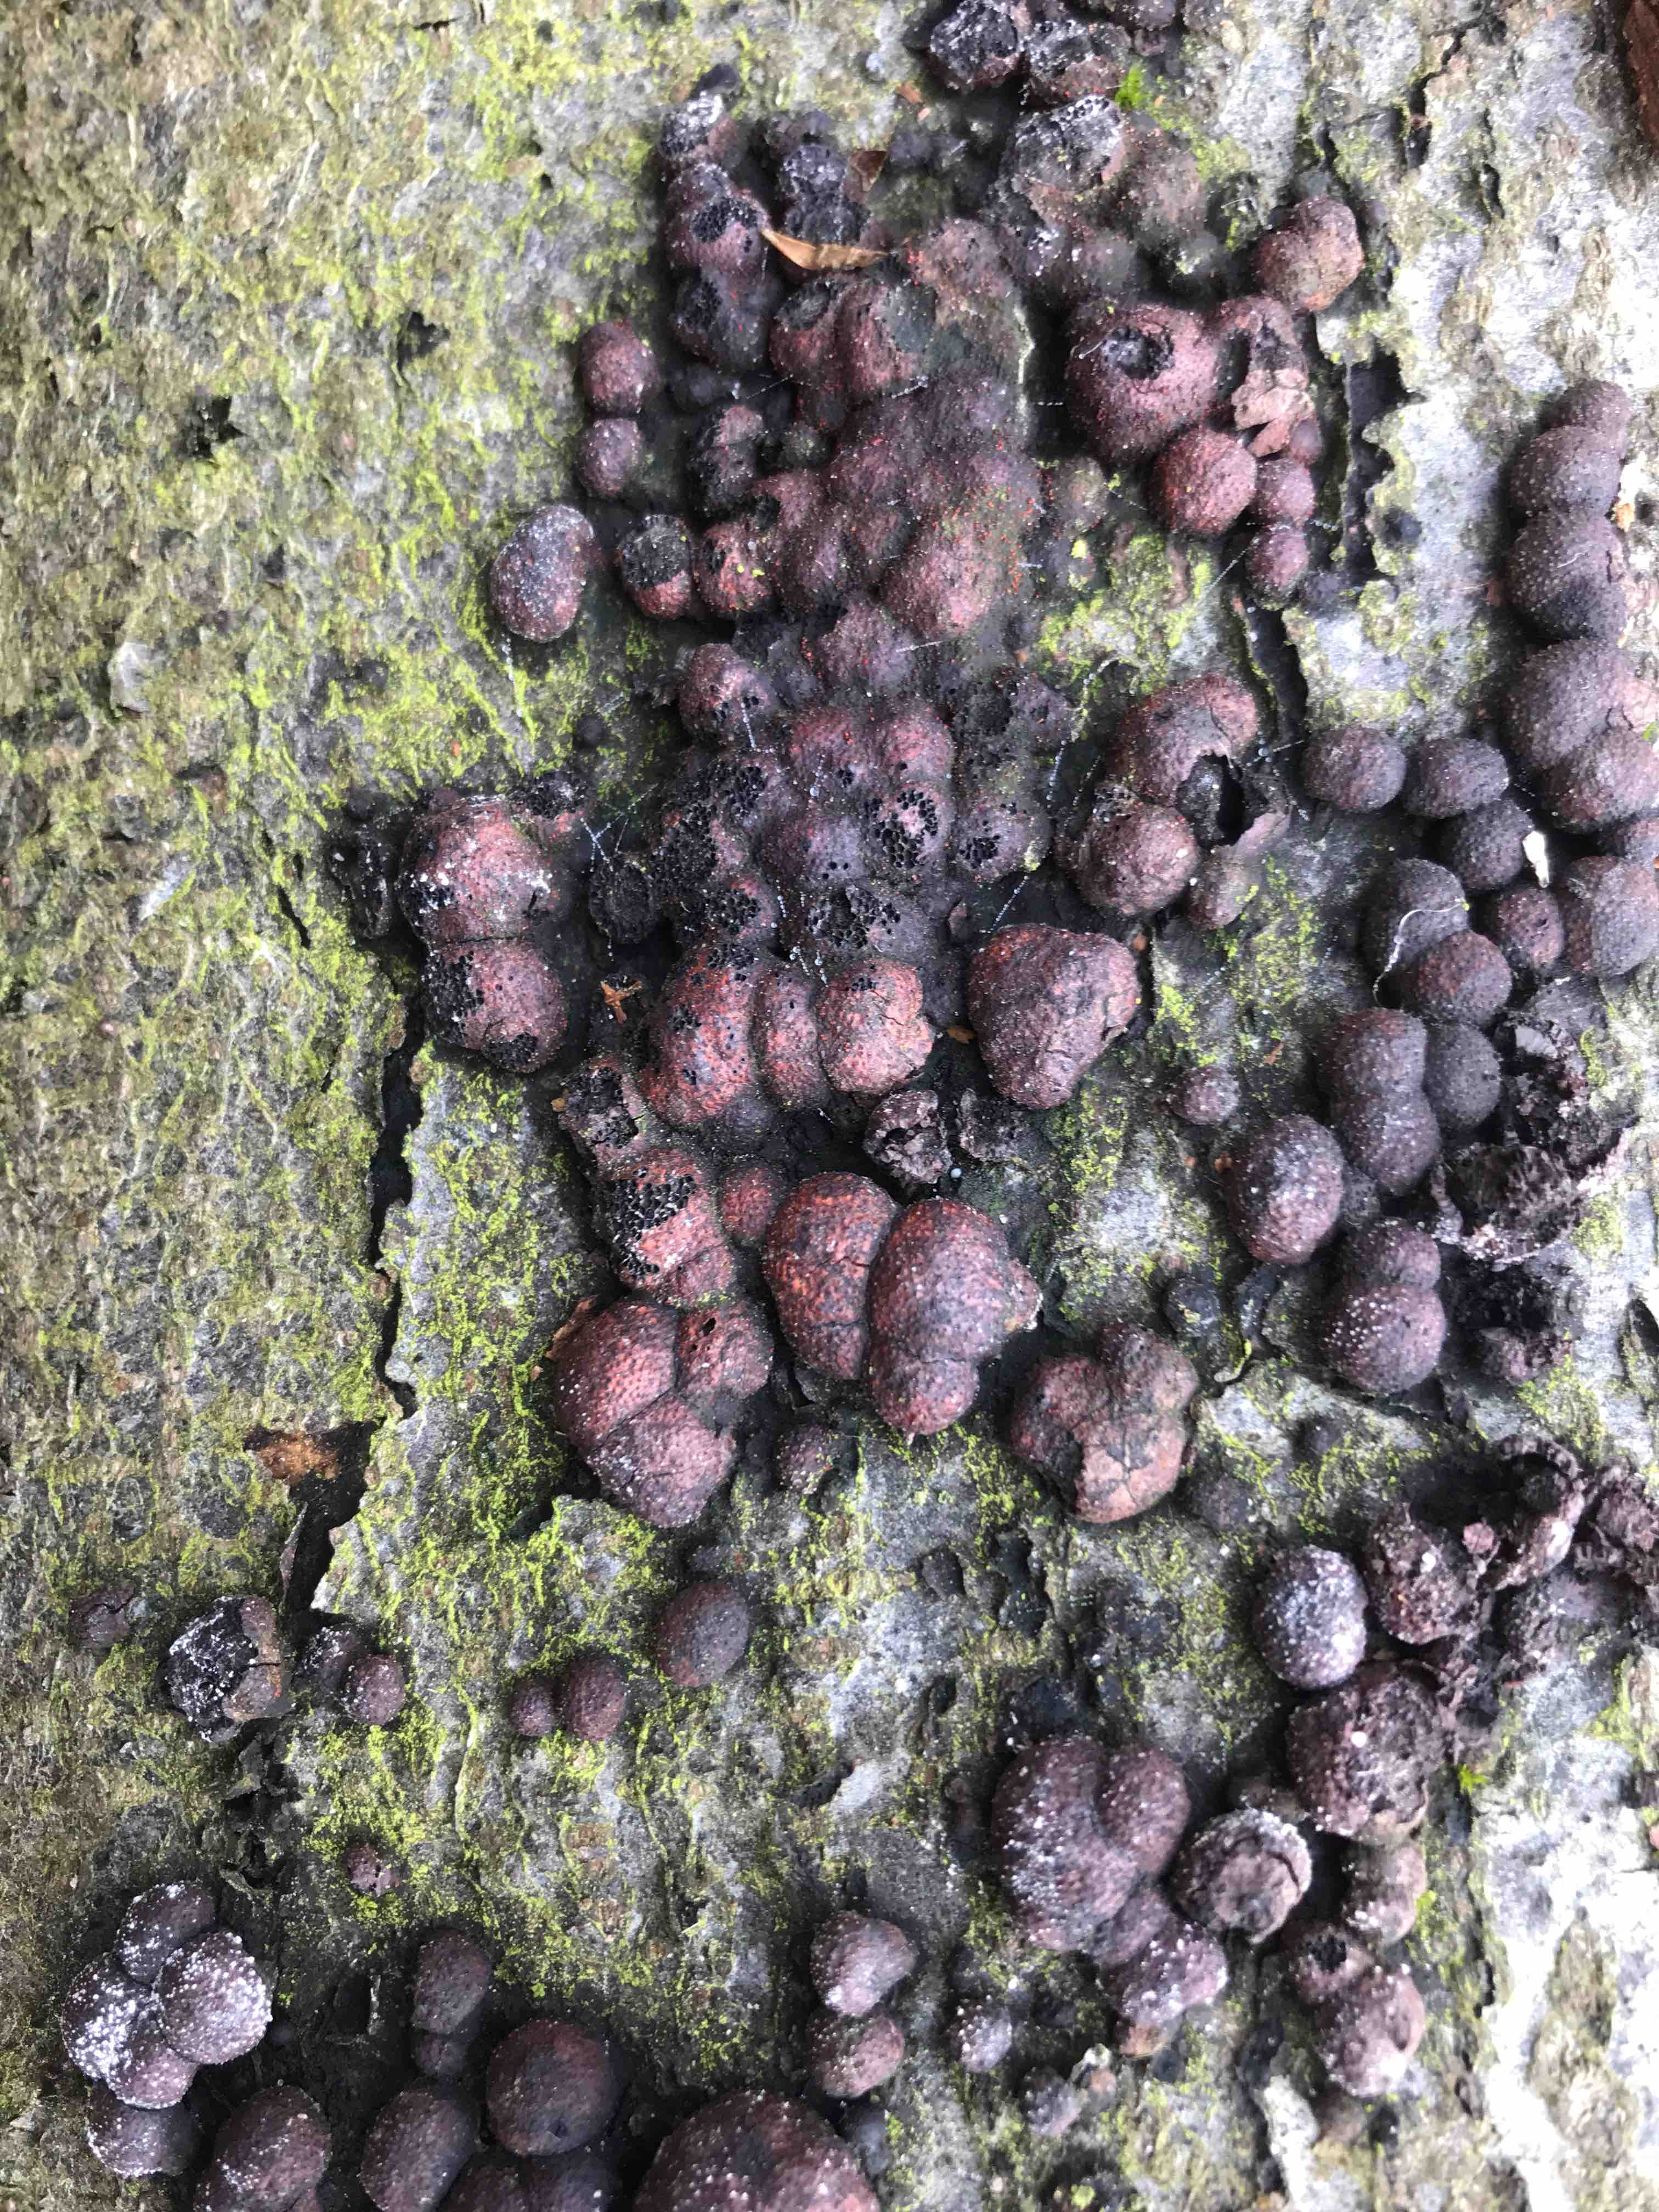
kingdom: Fungi
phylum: Ascomycota
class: Sordariomycetes
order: Xylariales
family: Hypoxylaceae
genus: Hypoxylon
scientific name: Hypoxylon fragiforme
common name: kuljordbær
